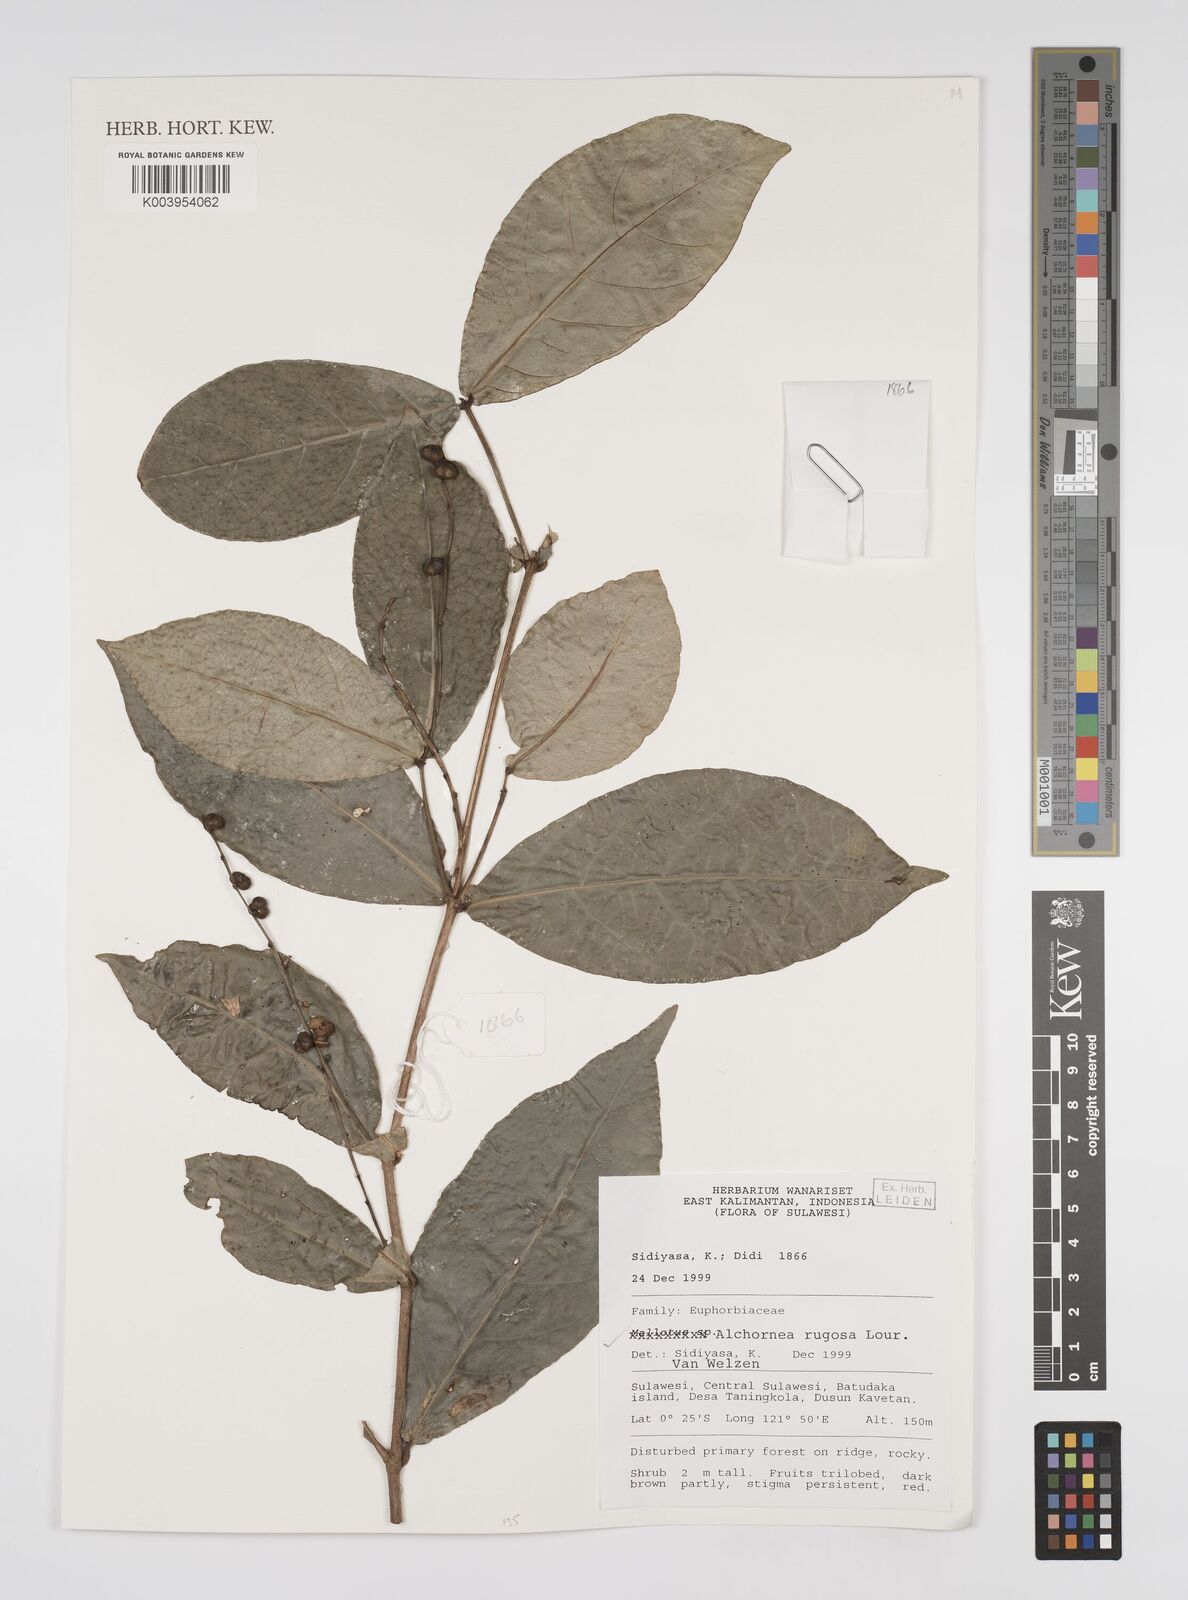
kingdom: Plantae
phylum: Tracheophyta
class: Magnoliopsida
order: Malpighiales
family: Euphorbiaceae
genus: Alchornea
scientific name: Alchornea rugosa
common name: Alchorntree
